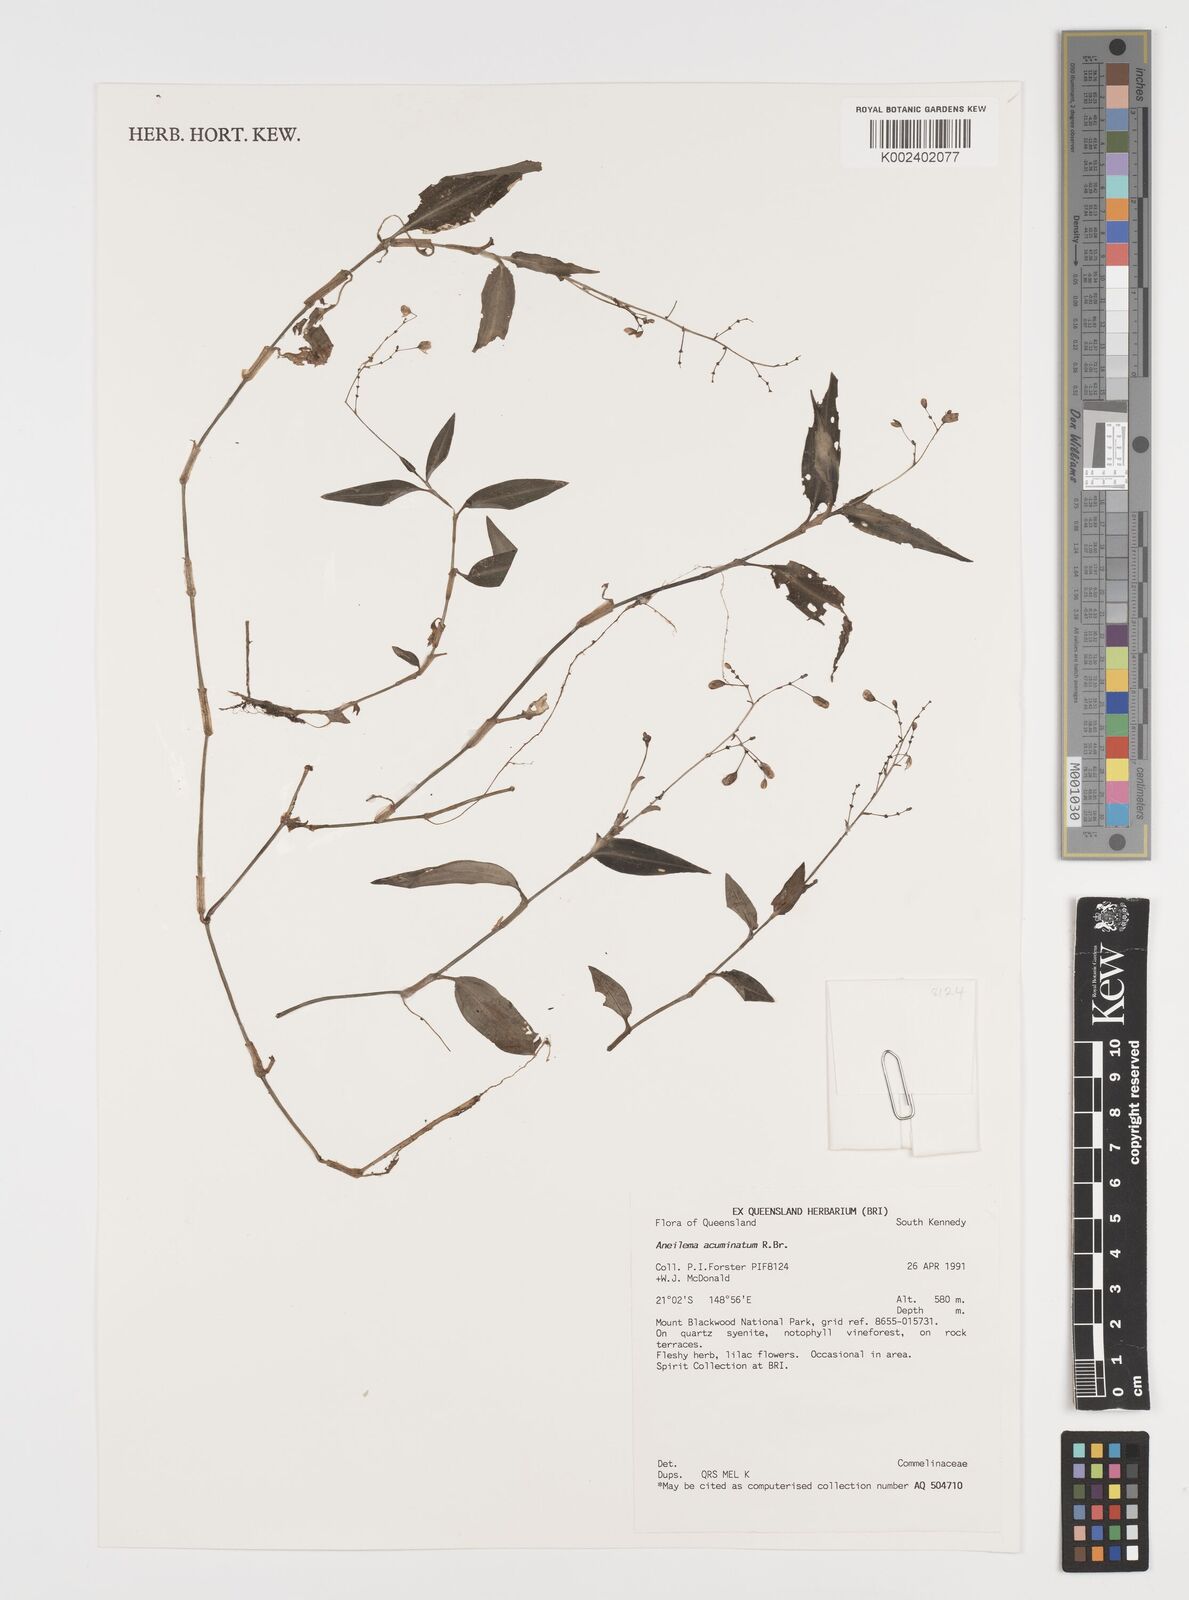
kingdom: Plantae
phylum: Tracheophyta
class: Liliopsida
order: Commelinales
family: Commelinaceae
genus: Aneilema
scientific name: Aneilema acuminatum
